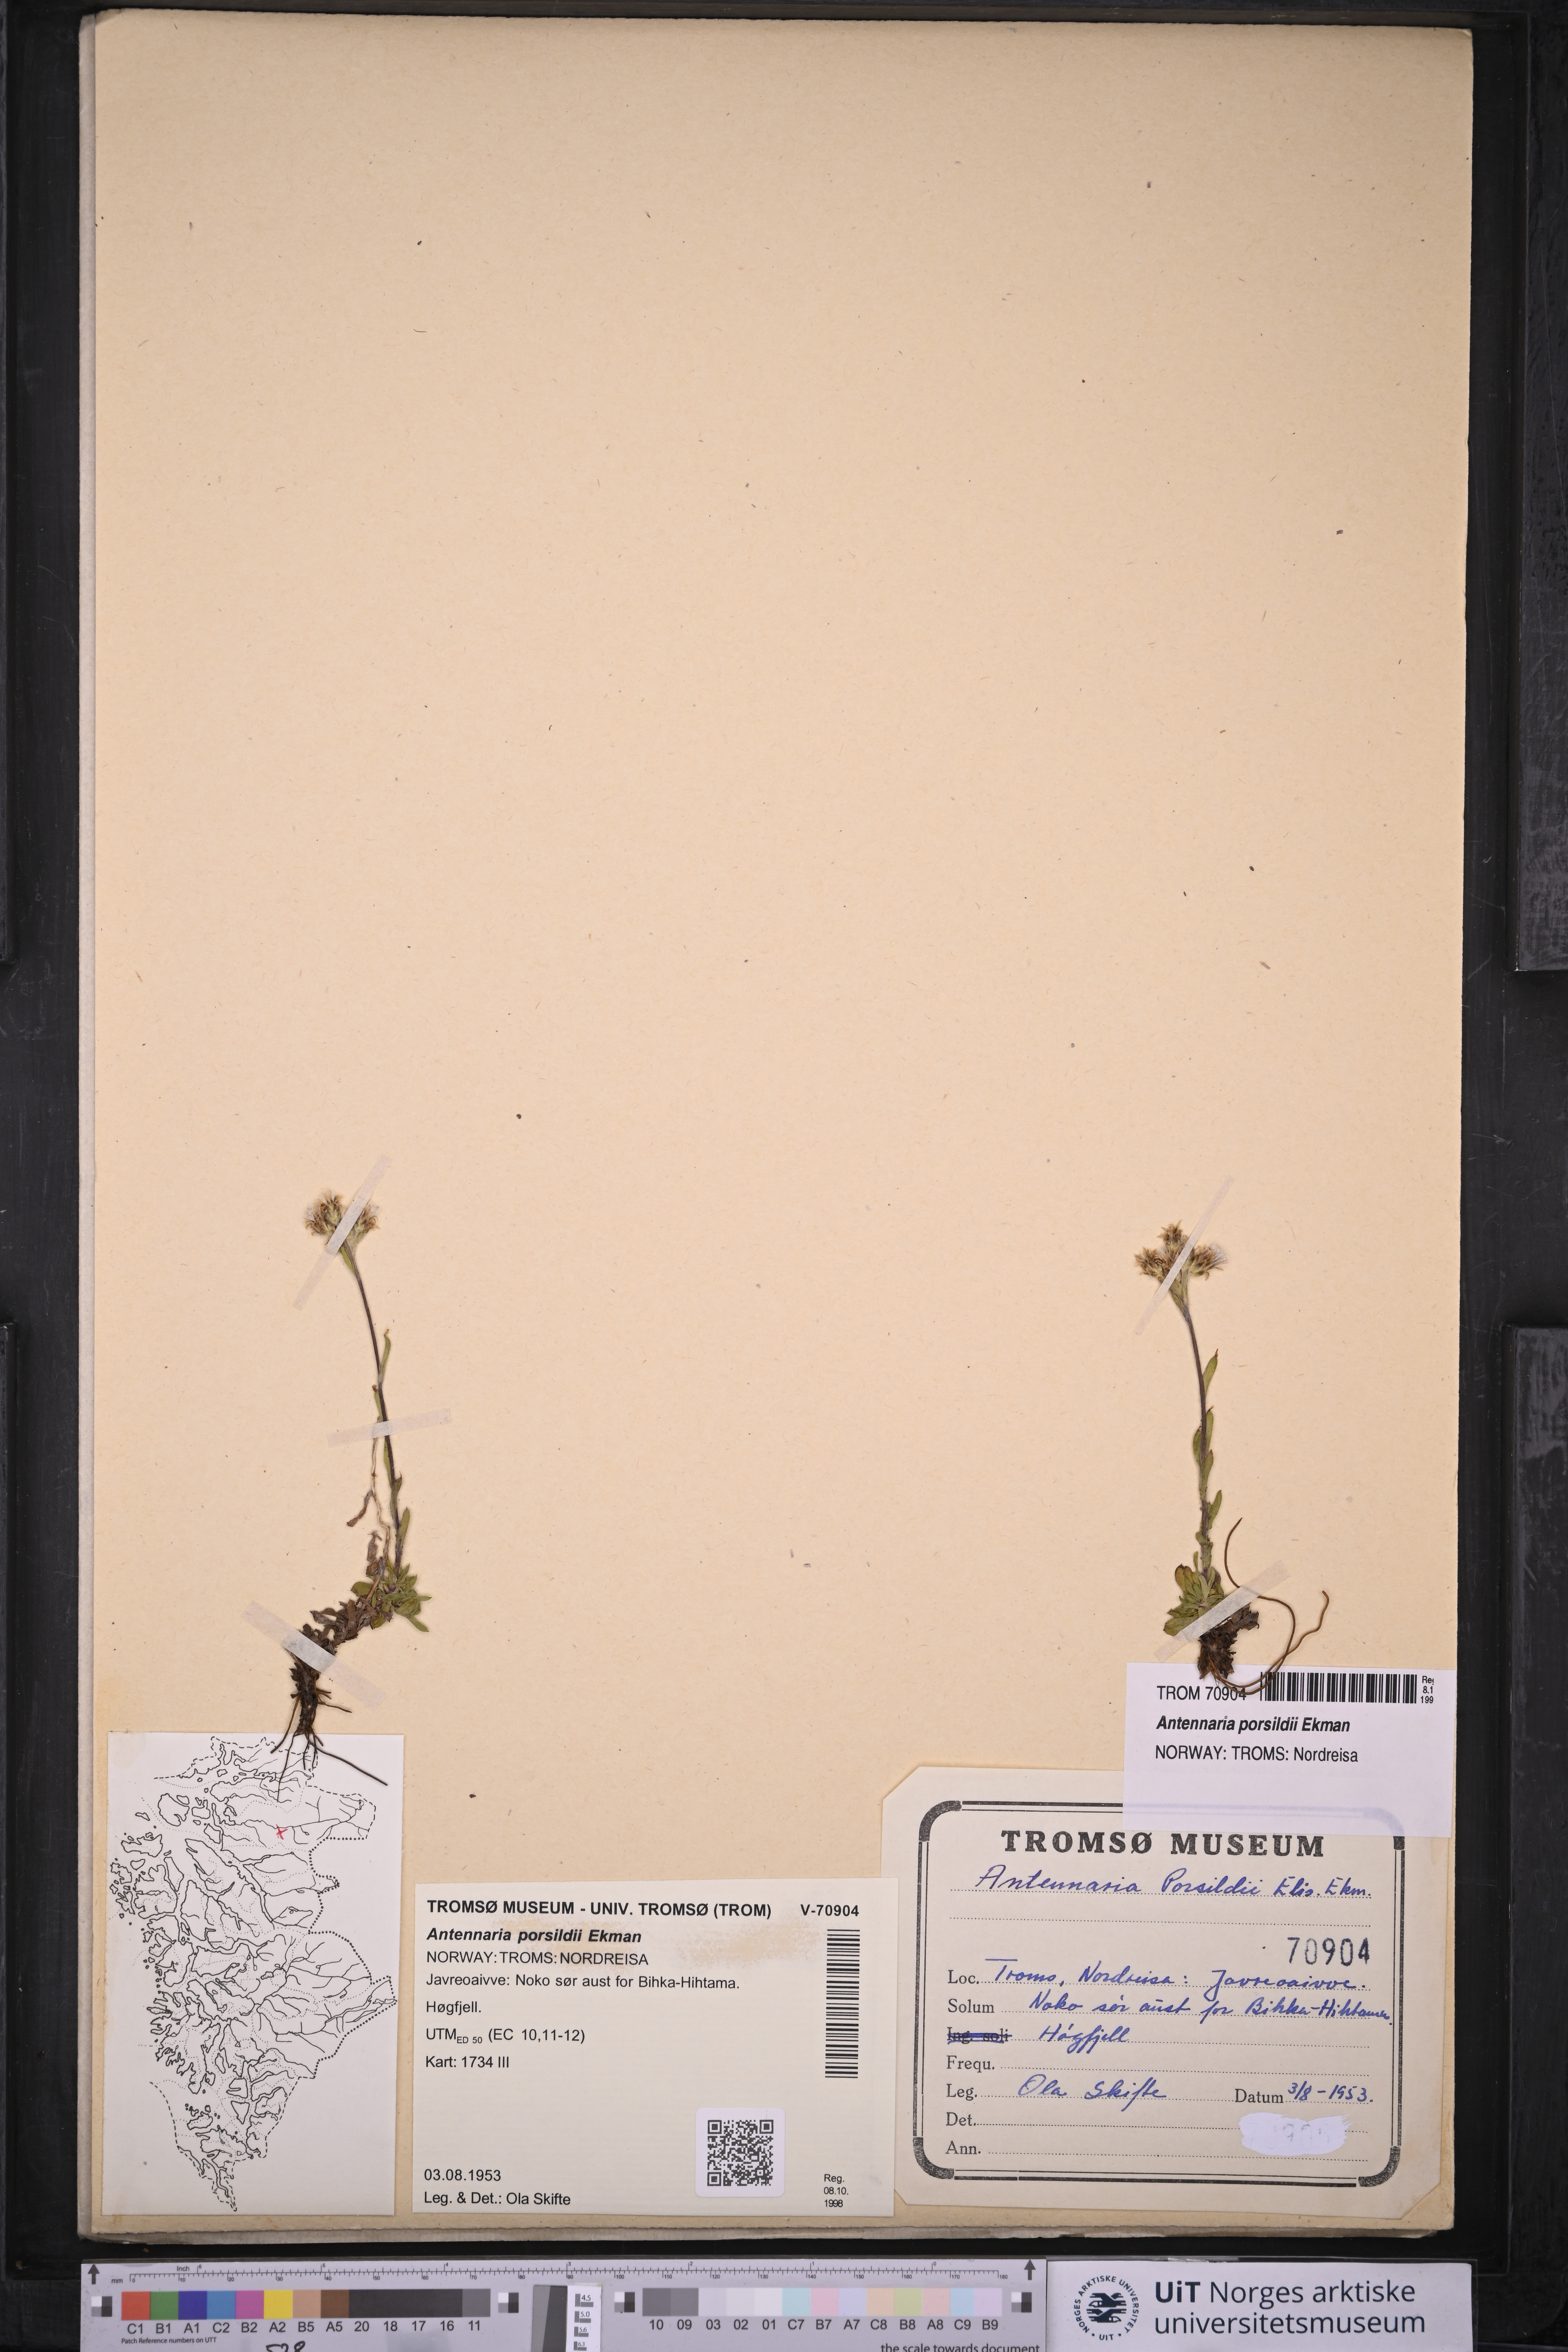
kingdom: Plantae
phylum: Tracheophyta
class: Magnoliopsida
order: Asterales
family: Asteraceae
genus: Antennaria
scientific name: Antennaria porsildii
